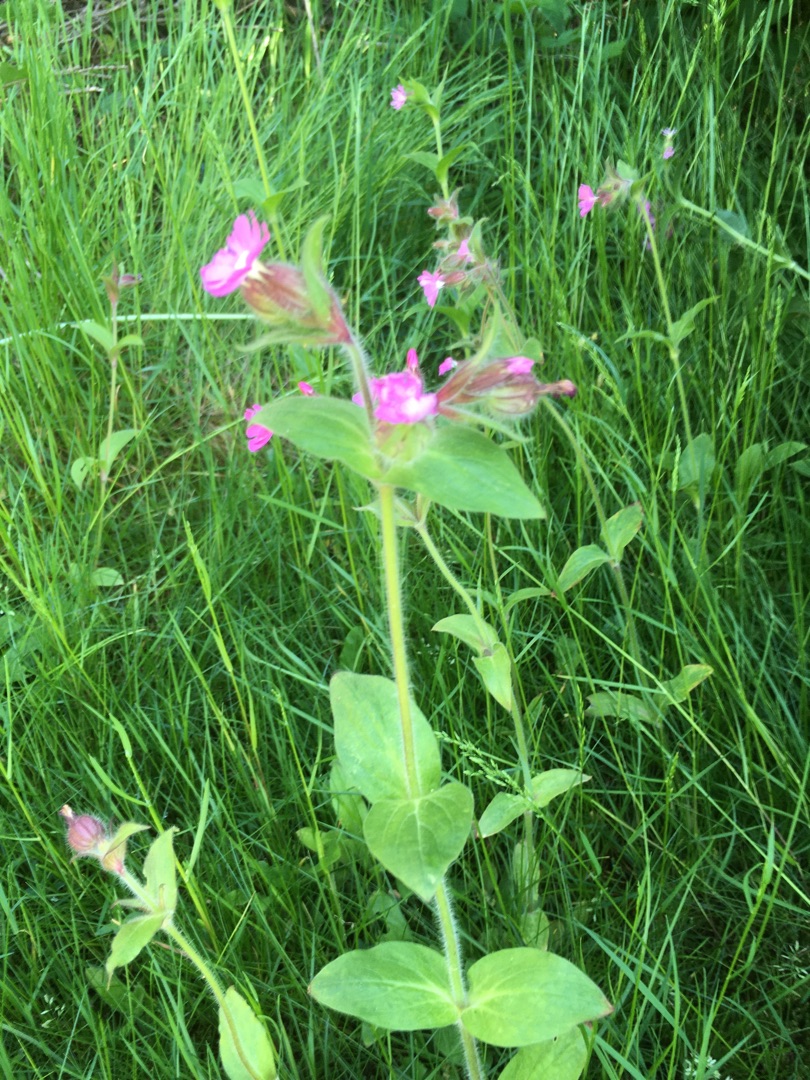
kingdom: Plantae
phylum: Tracheophyta
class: Magnoliopsida
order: Caryophyllales
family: Caryophyllaceae
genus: Silene
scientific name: Silene dioica
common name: Dagpragtstjerne
